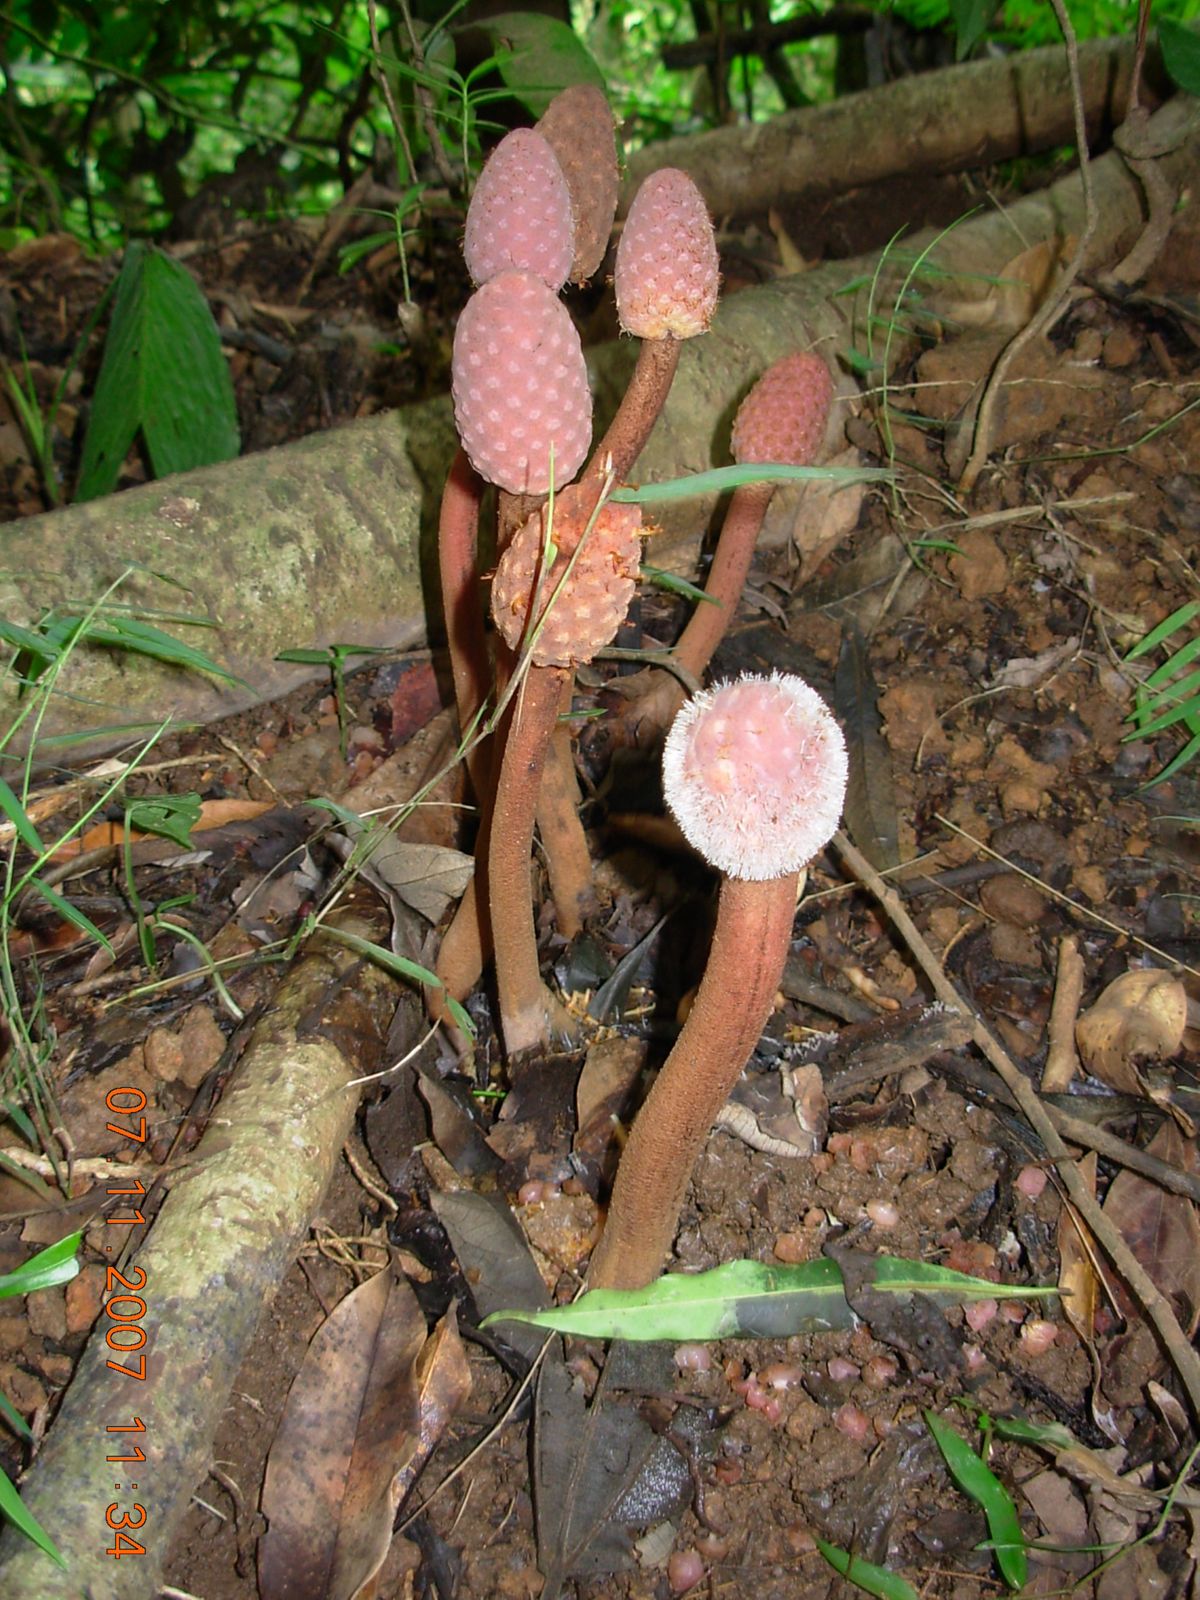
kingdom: Plantae
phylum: Tracheophyta
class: Magnoliopsida
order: Santalales
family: Balanophoraceae
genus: Helosis
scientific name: Helosis cayennensis
